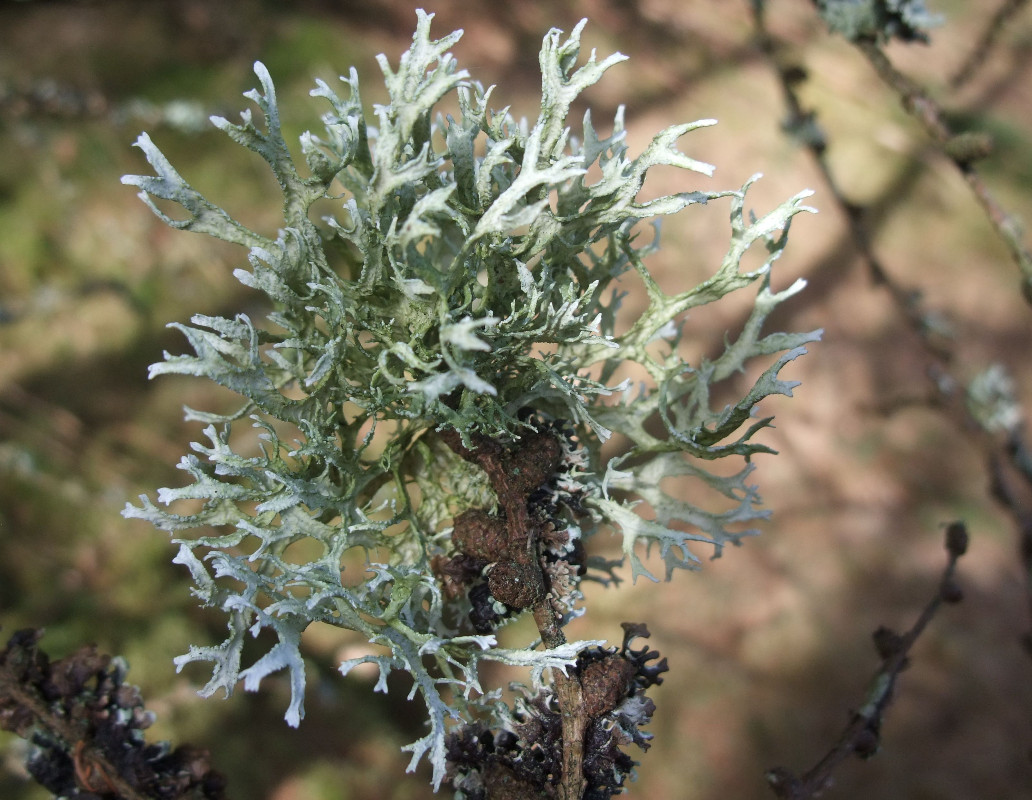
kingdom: Fungi
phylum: Ascomycota
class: Lecanoromycetes
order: Lecanorales
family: Parmeliaceae
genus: Evernia
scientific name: Evernia prunastri
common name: almindelig slåenlav
